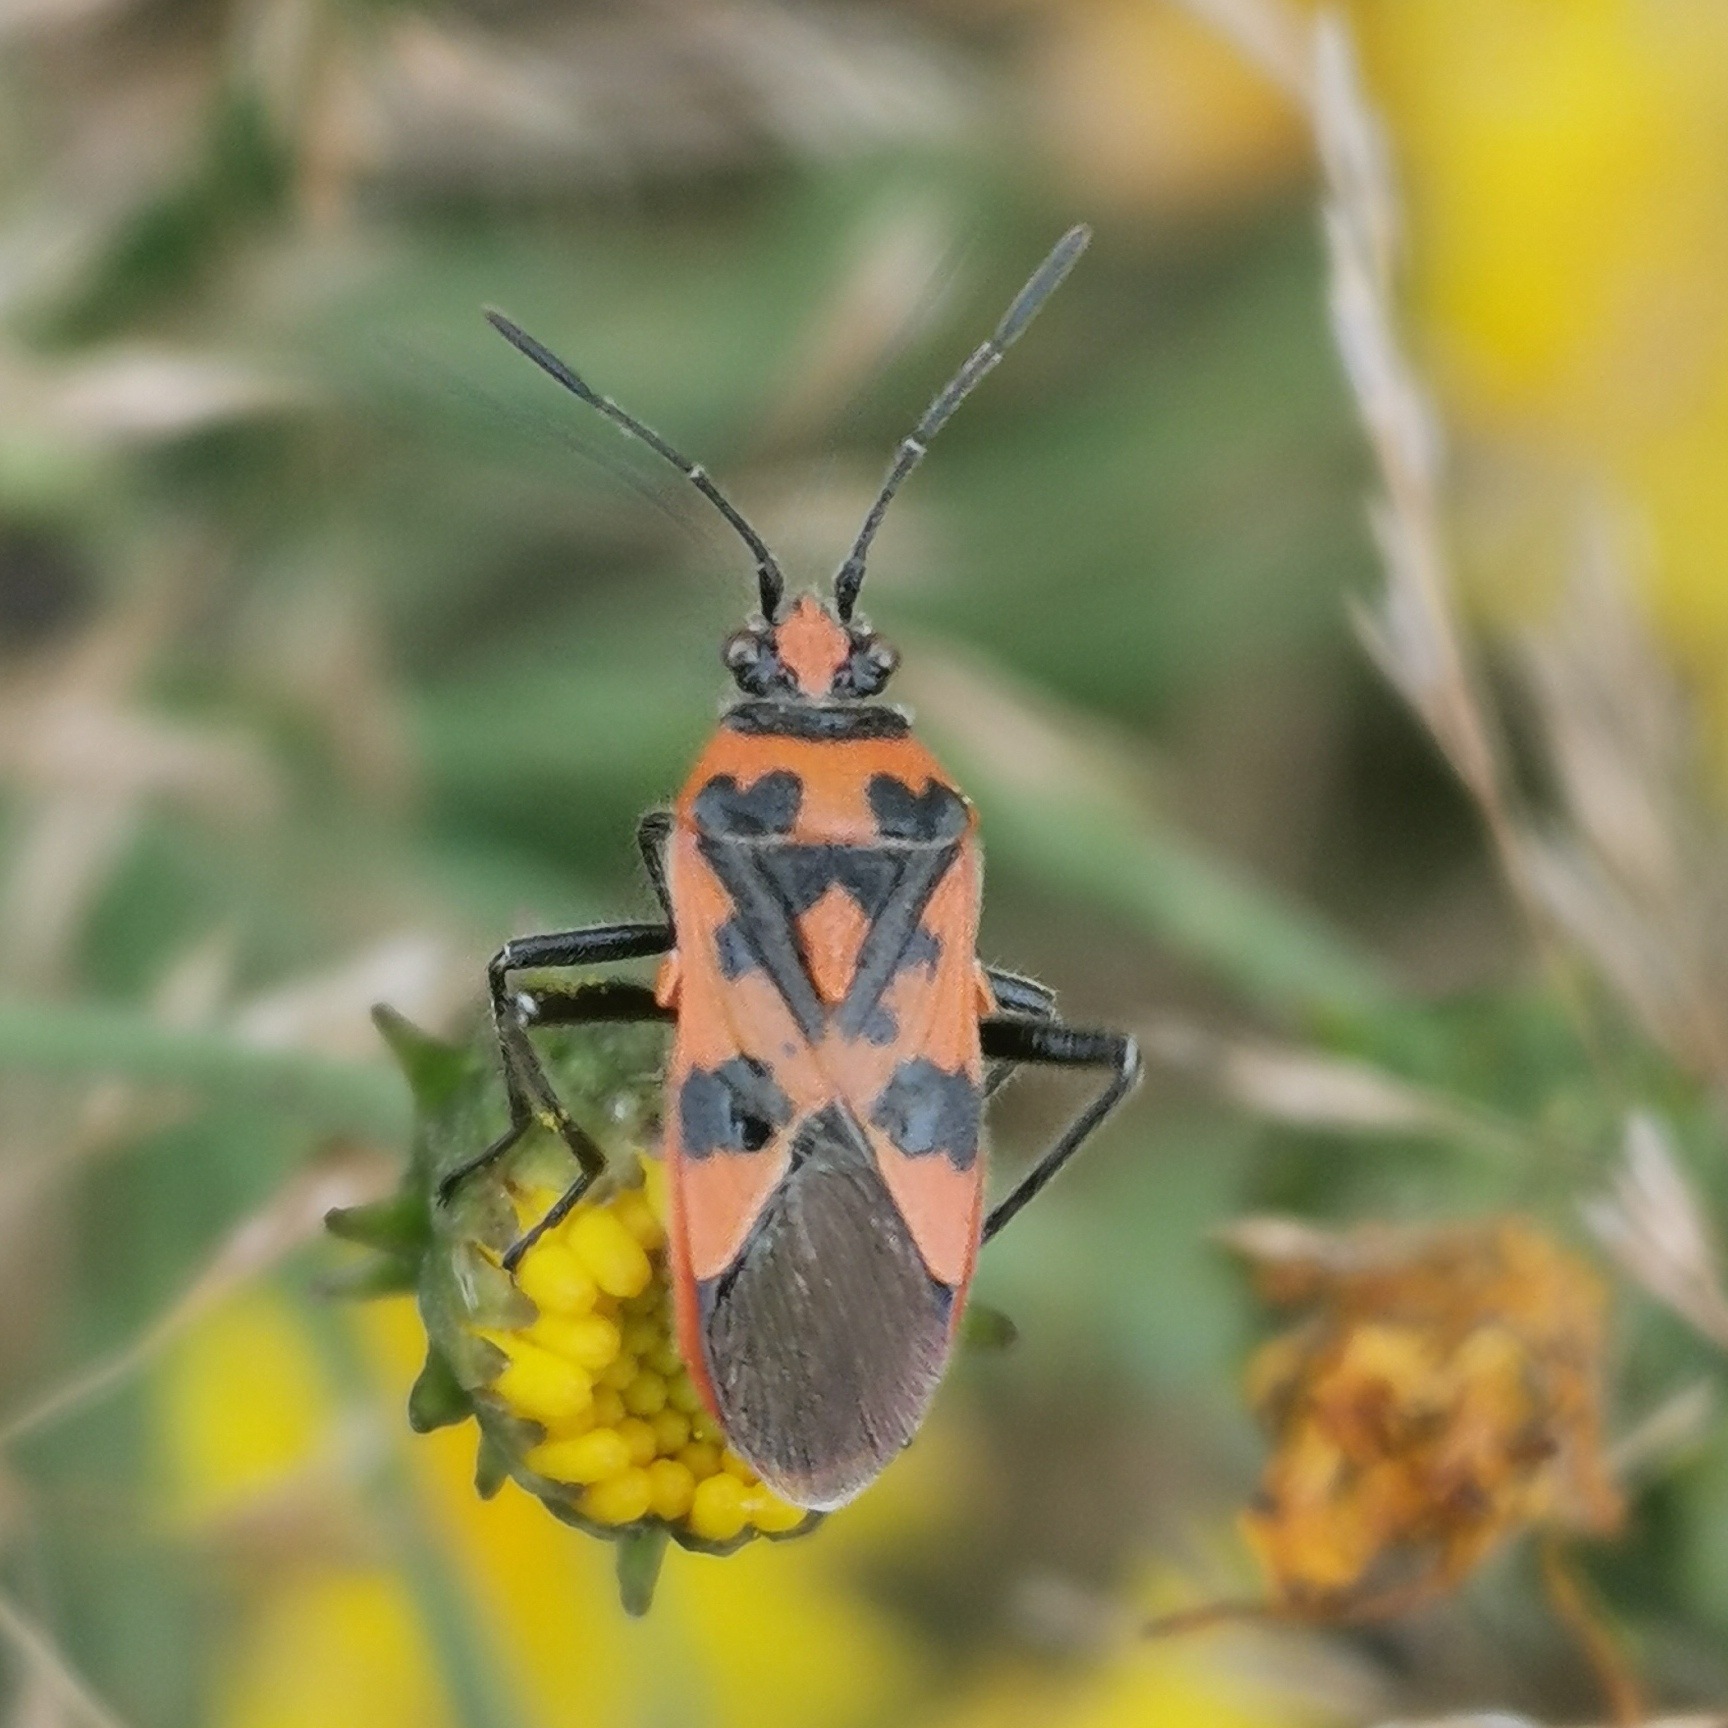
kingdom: Animalia
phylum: Arthropoda
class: Insecta
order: Hemiptera
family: Rhopalidae
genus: Corizus
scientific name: Corizus hyoscyami
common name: Rød kanttæge
